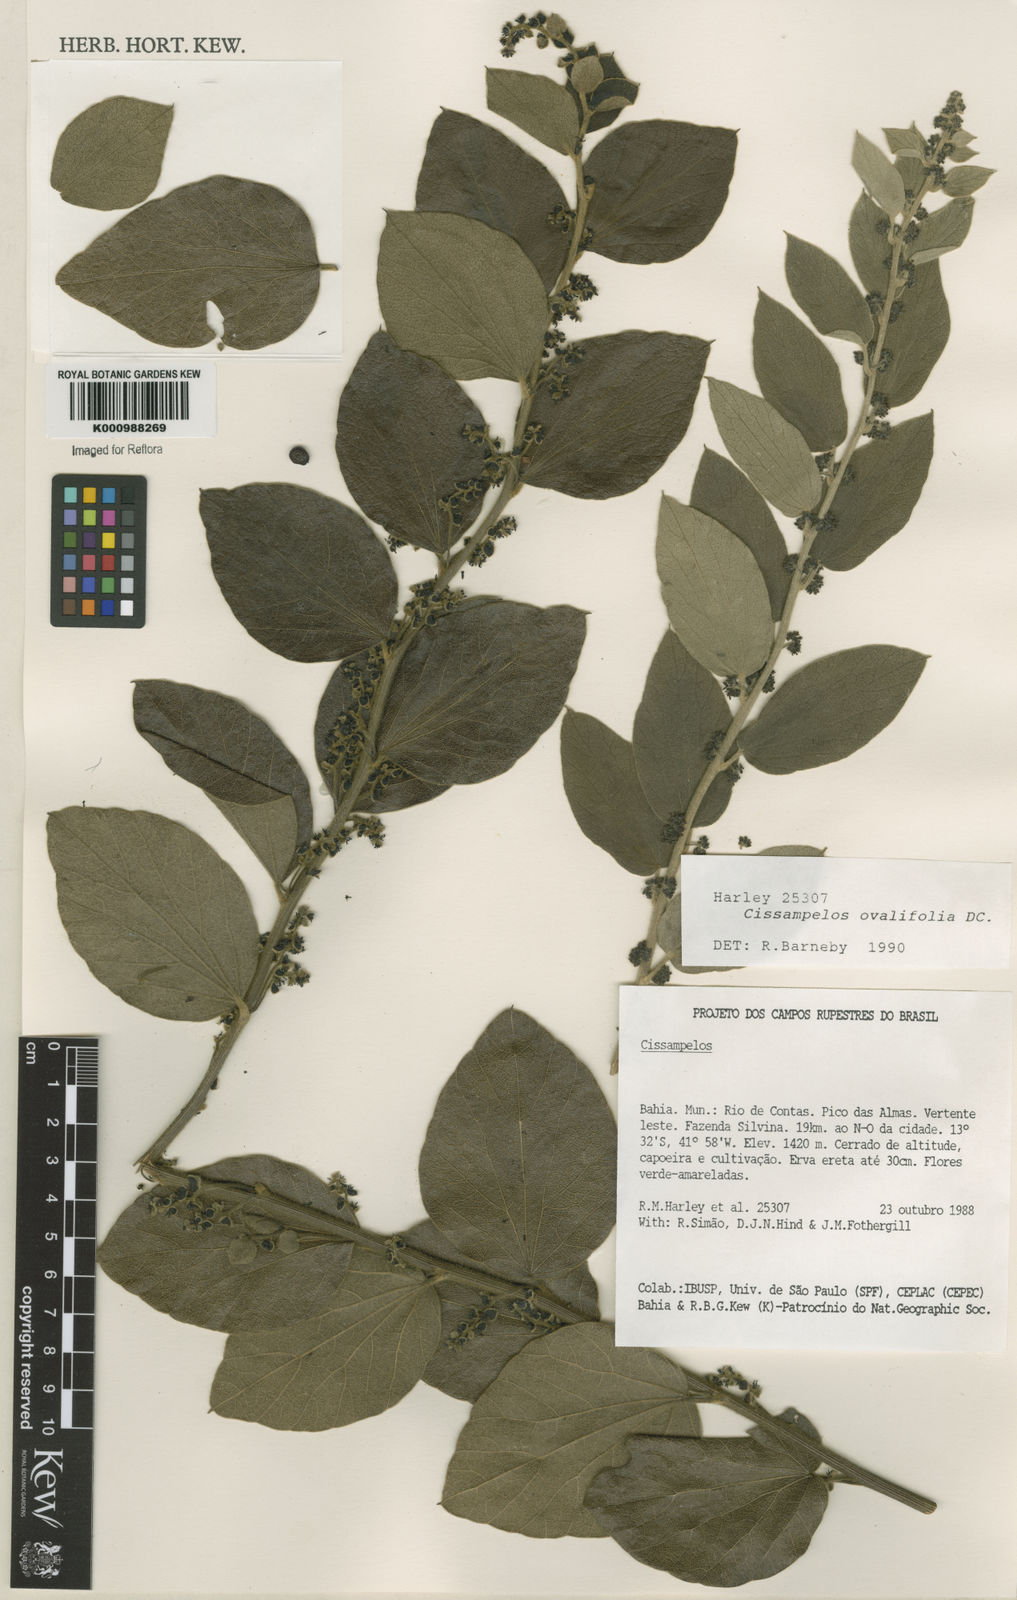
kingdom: Plantae
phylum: Tracheophyta
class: Magnoliopsida
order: Ranunculales
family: Menispermaceae
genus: Cissampelos
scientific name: Cissampelos ovalifolia
